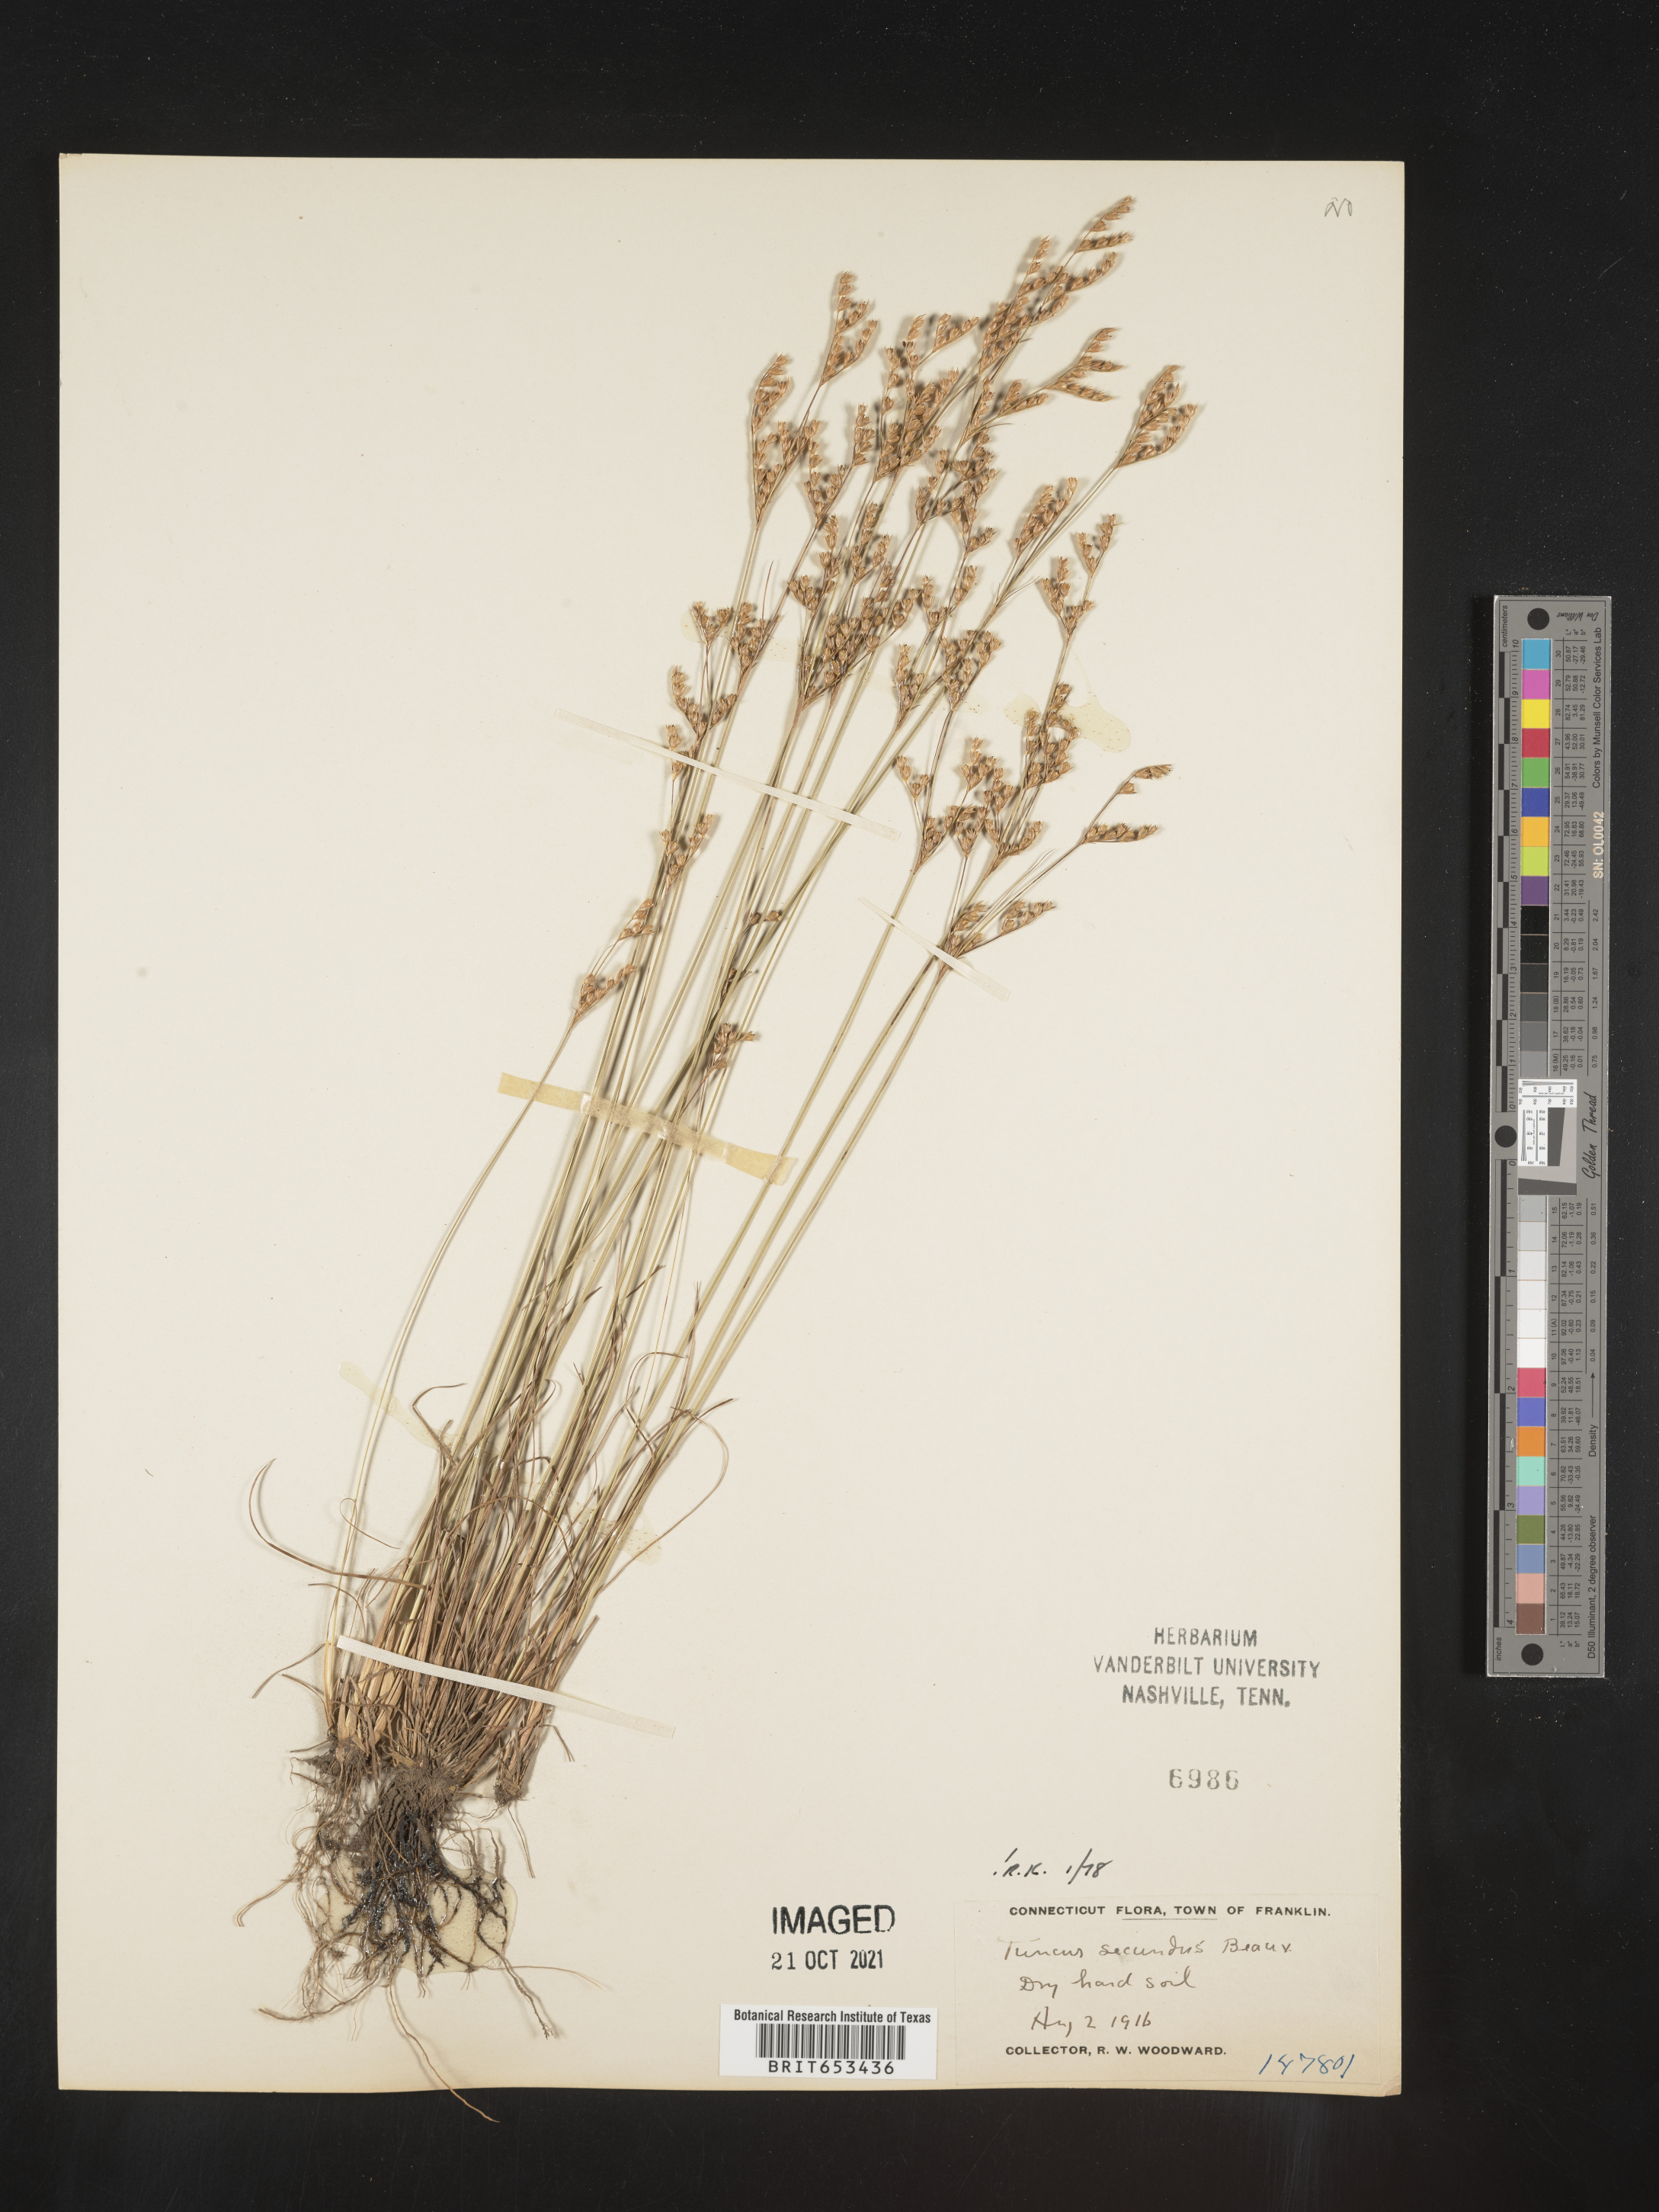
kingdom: Plantae
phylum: Tracheophyta
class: Liliopsida
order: Poales
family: Juncaceae
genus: Juncus
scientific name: Juncus secundus
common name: Lopsided rush
